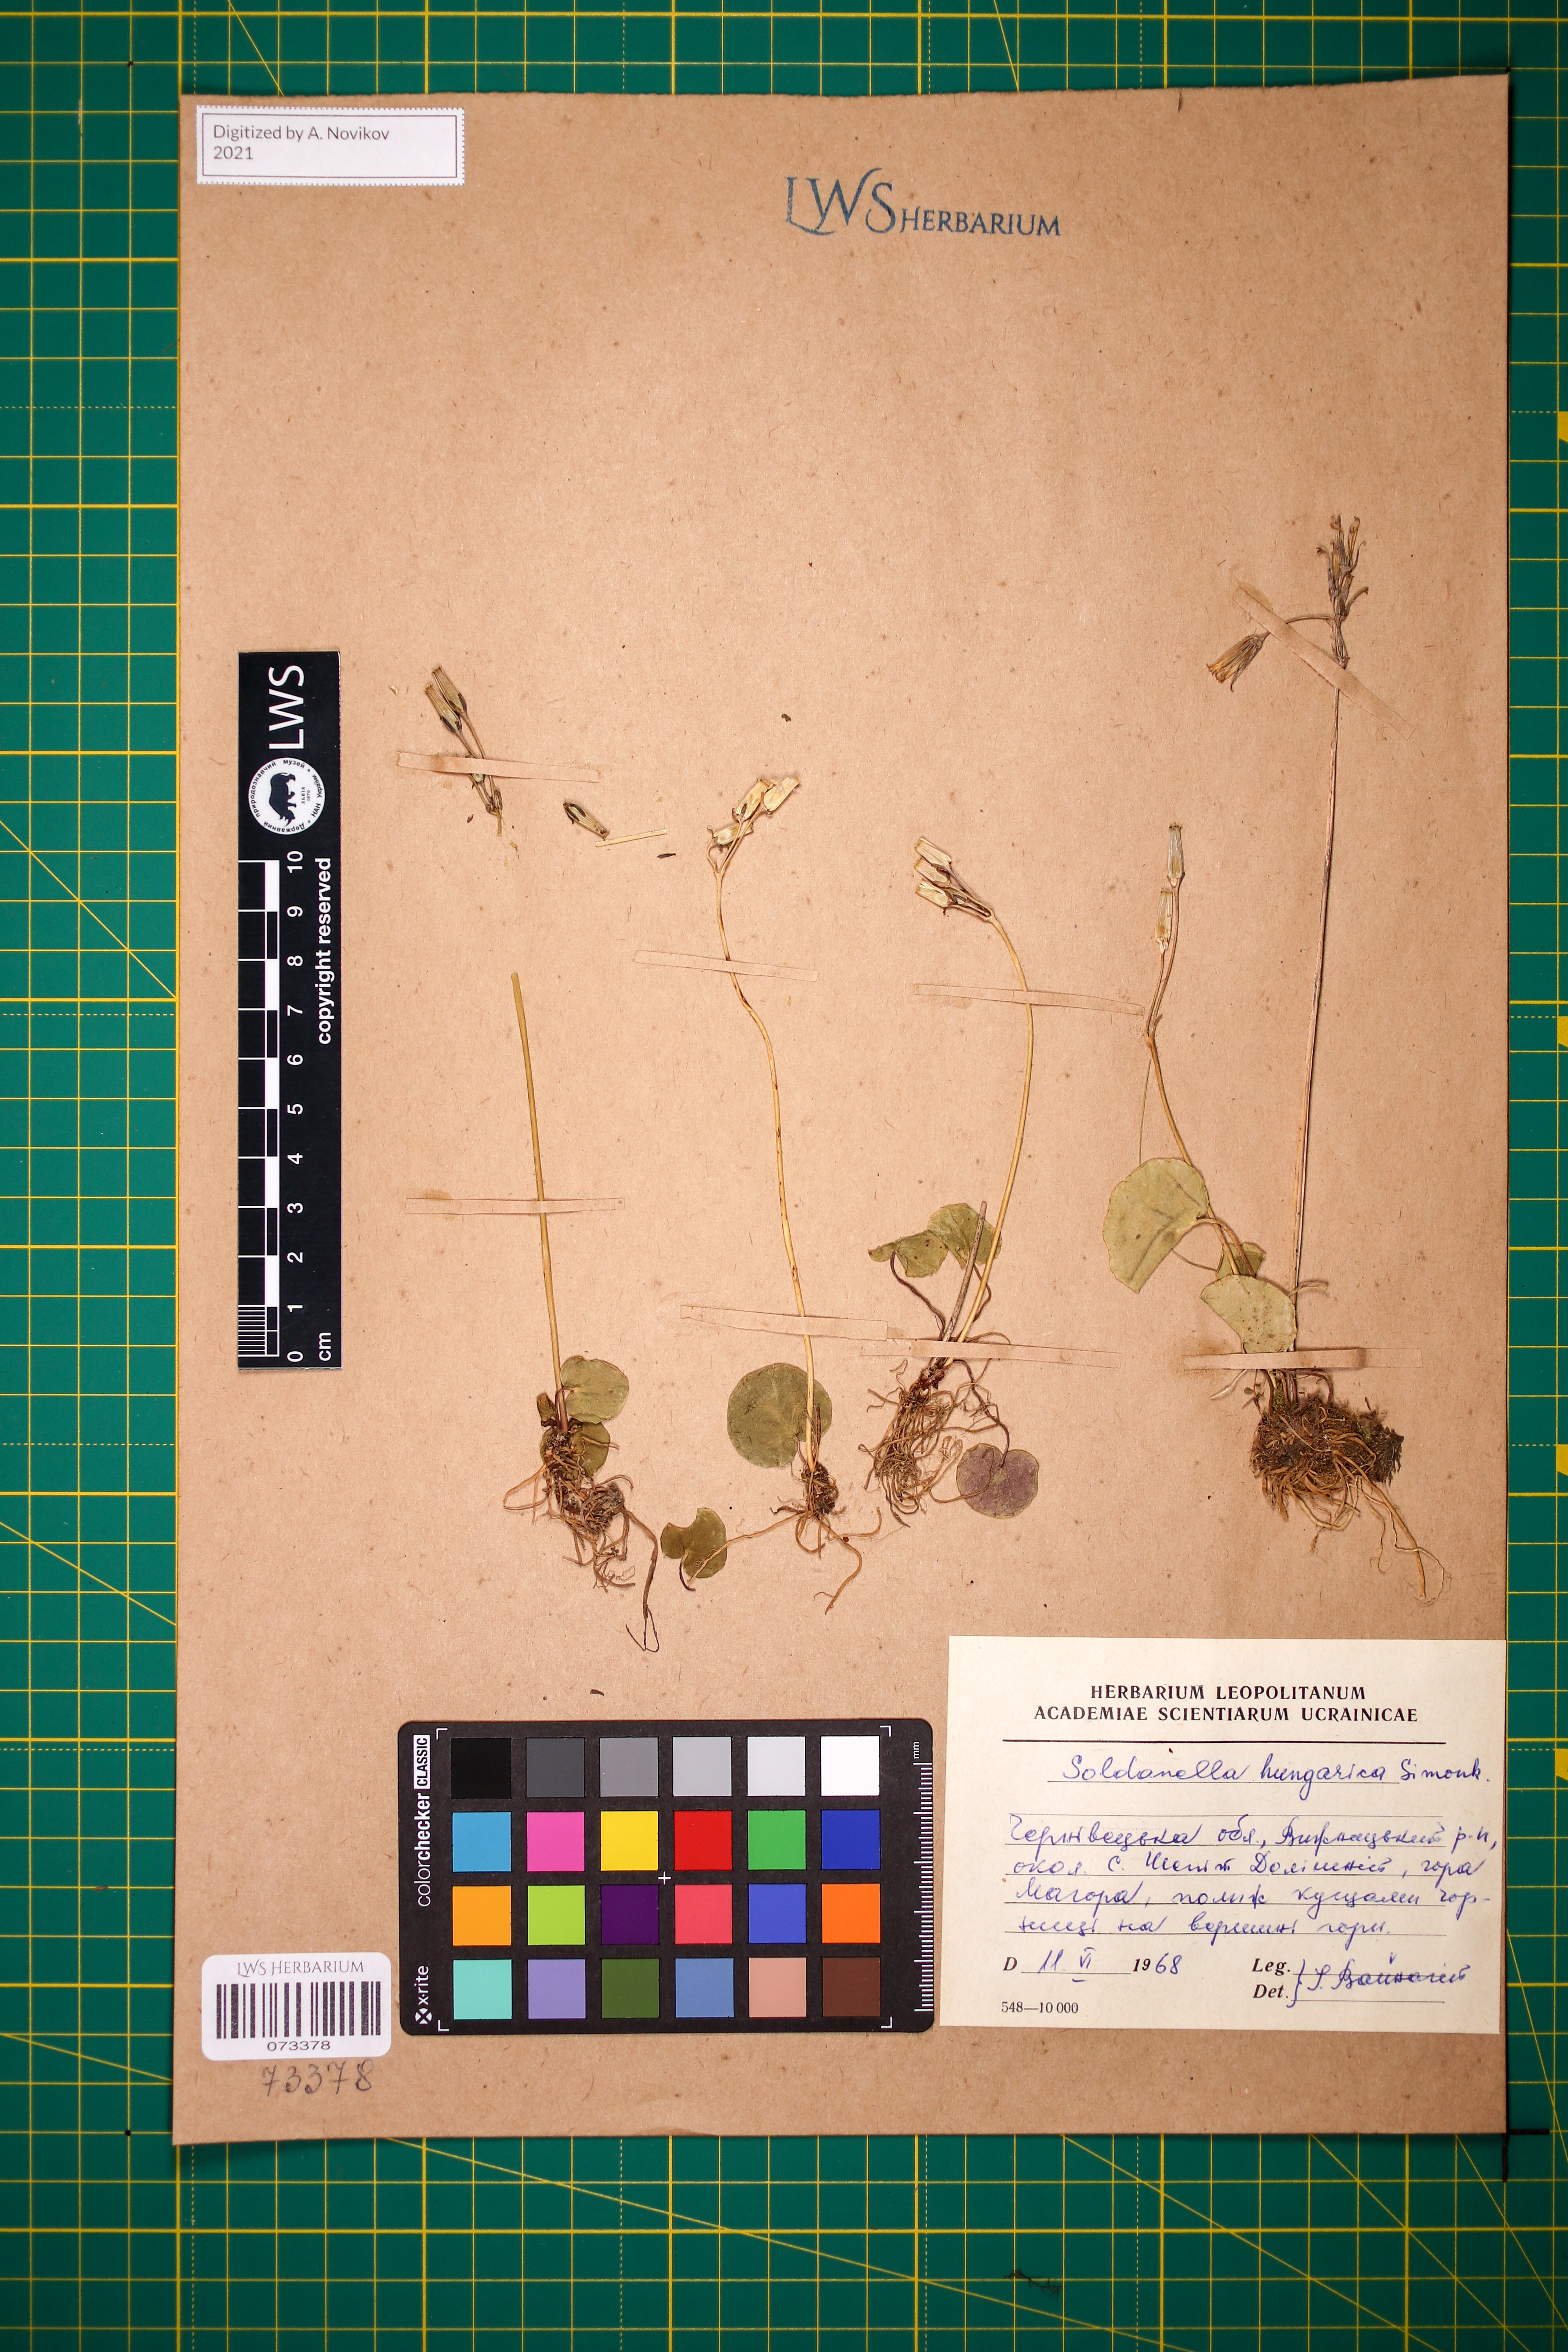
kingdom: Plantae
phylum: Tracheophyta
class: Magnoliopsida
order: Ericales
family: Primulaceae
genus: Soldanella
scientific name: Soldanella hungarica
